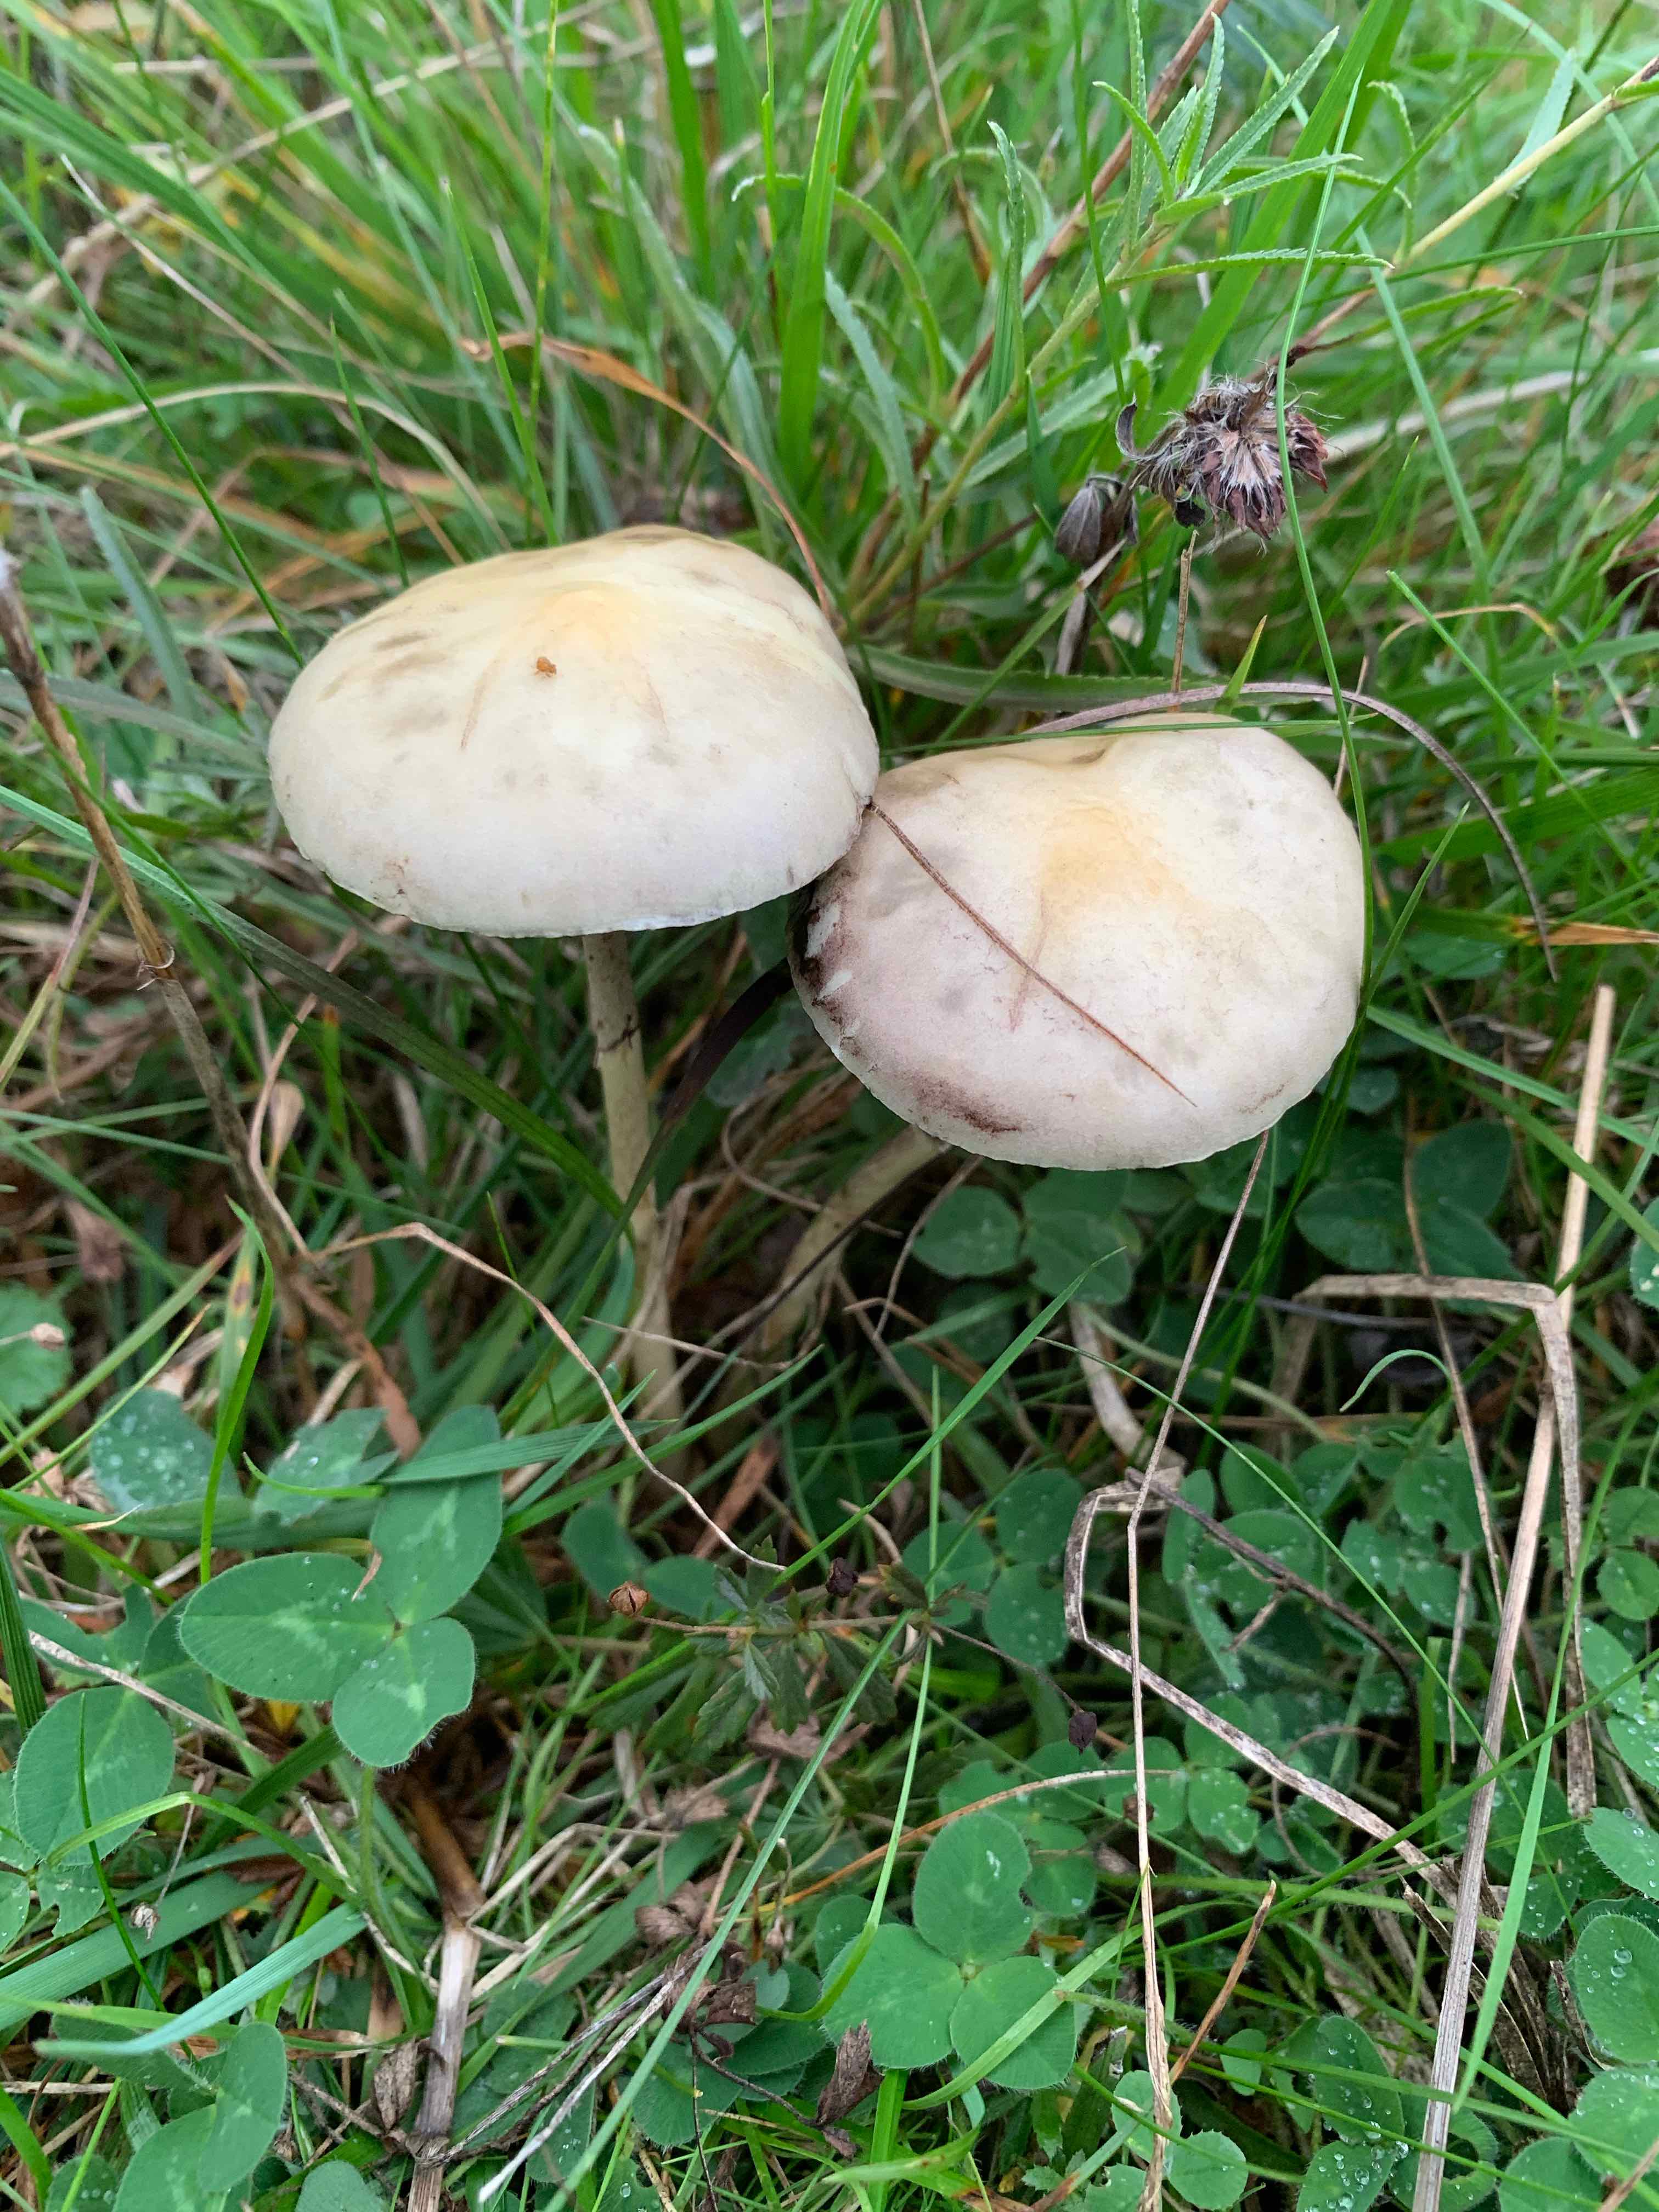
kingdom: Fungi
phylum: Basidiomycota
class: Agaricomycetes
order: Agaricales
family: Strophariaceae
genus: Protostropharia
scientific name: Protostropharia semiglobata
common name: halvkugleformet bredblad
